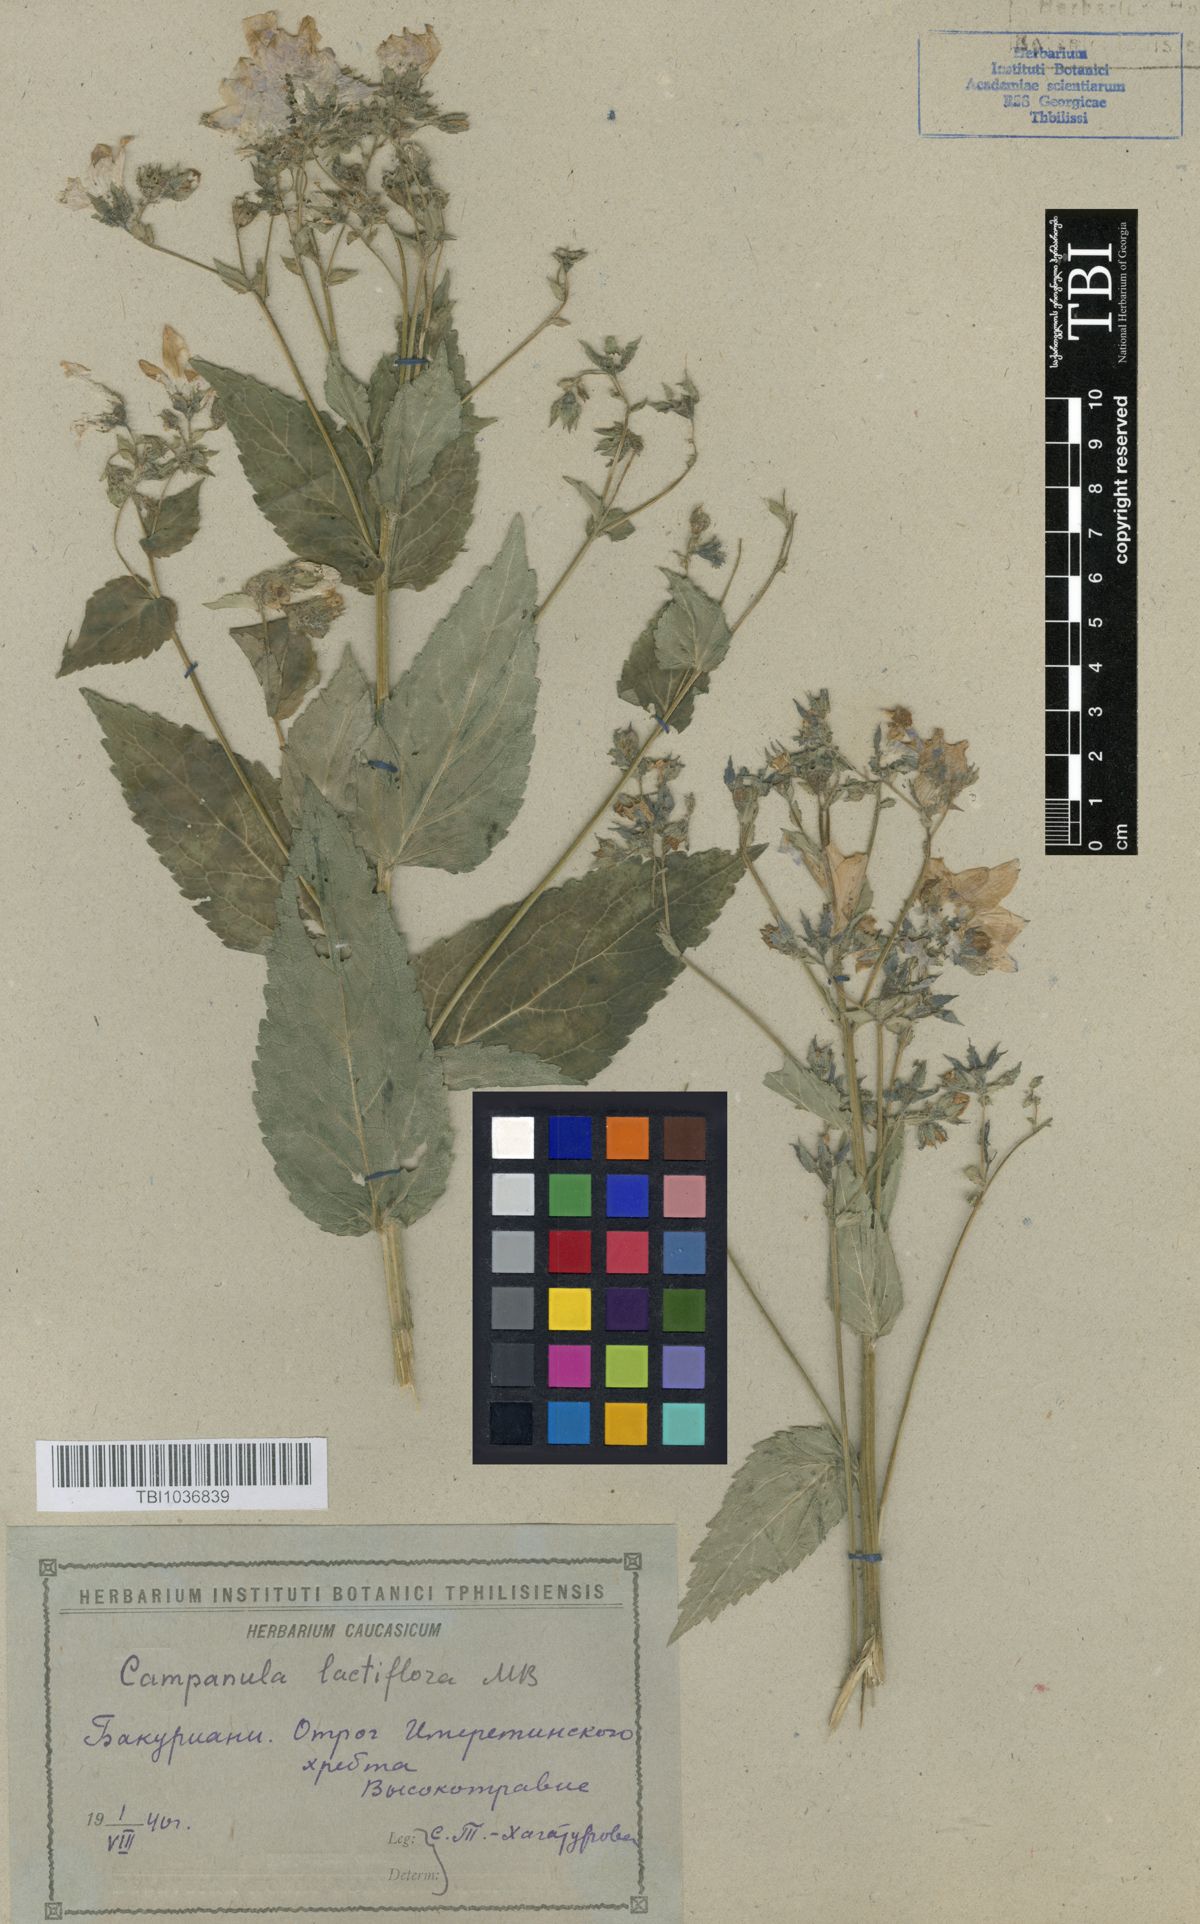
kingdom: Plantae
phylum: Tracheophyta
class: Magnoliopsida
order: Asterales
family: Campanulaceae
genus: Campanula
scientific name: Campanula lactiflora
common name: Milky bellflower
